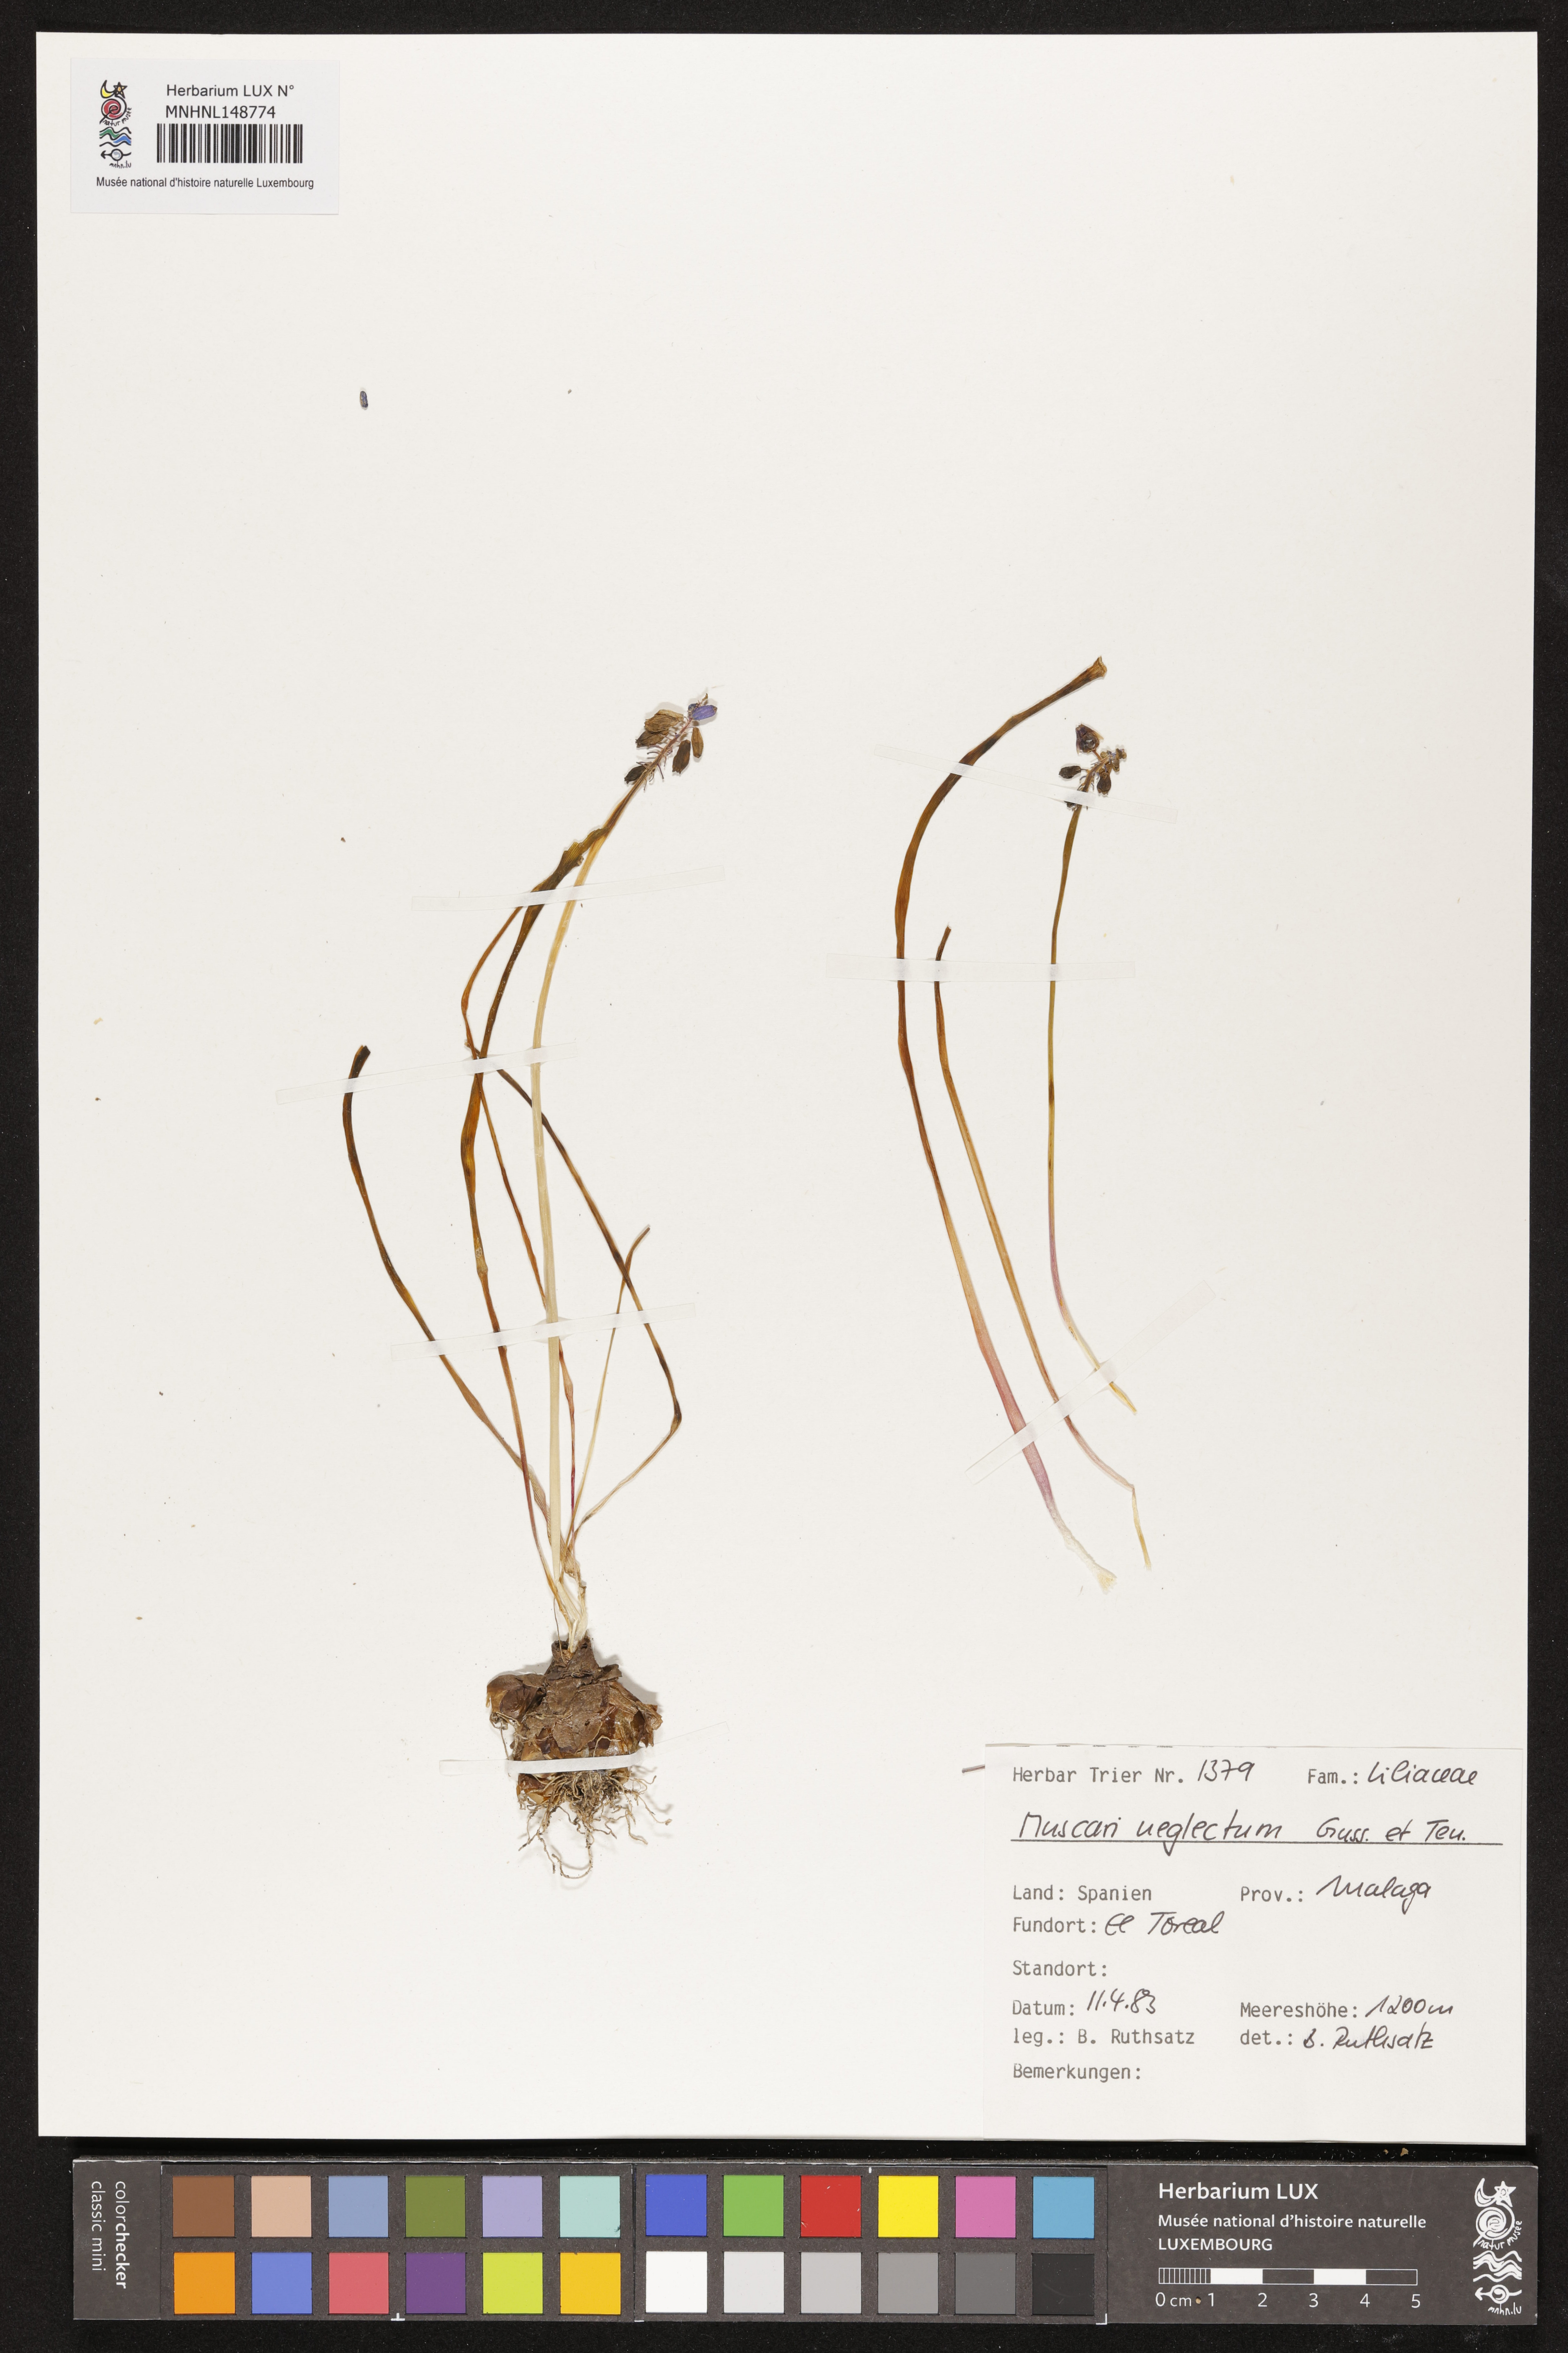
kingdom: Plantae
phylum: Tracheophyta
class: Liliopsida
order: Asparagales
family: Asparagaceae
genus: Muscari
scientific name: Muscari neglectum
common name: Grape-hyacinth
